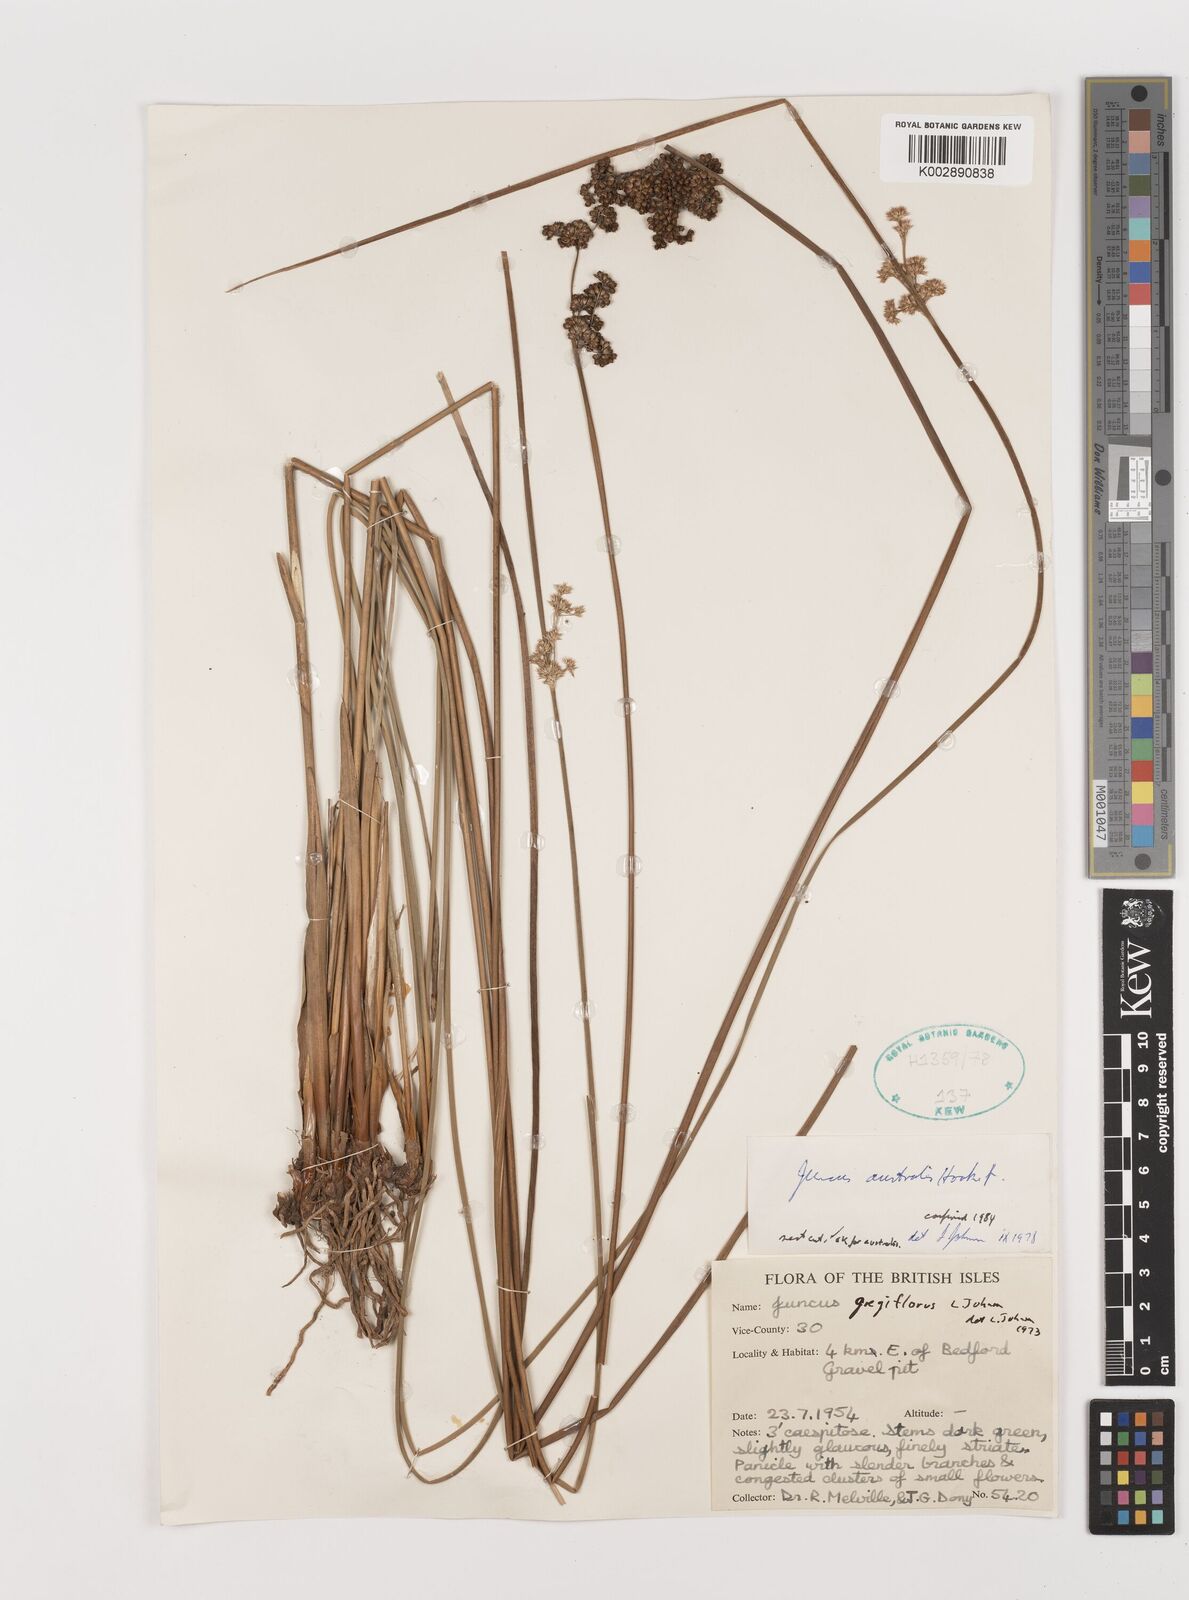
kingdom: Plantae
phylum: Tracheophyta
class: Liliopsida
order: Poales
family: Juncaceae
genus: Juncus
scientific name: Juncus australis
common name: Austral rush
